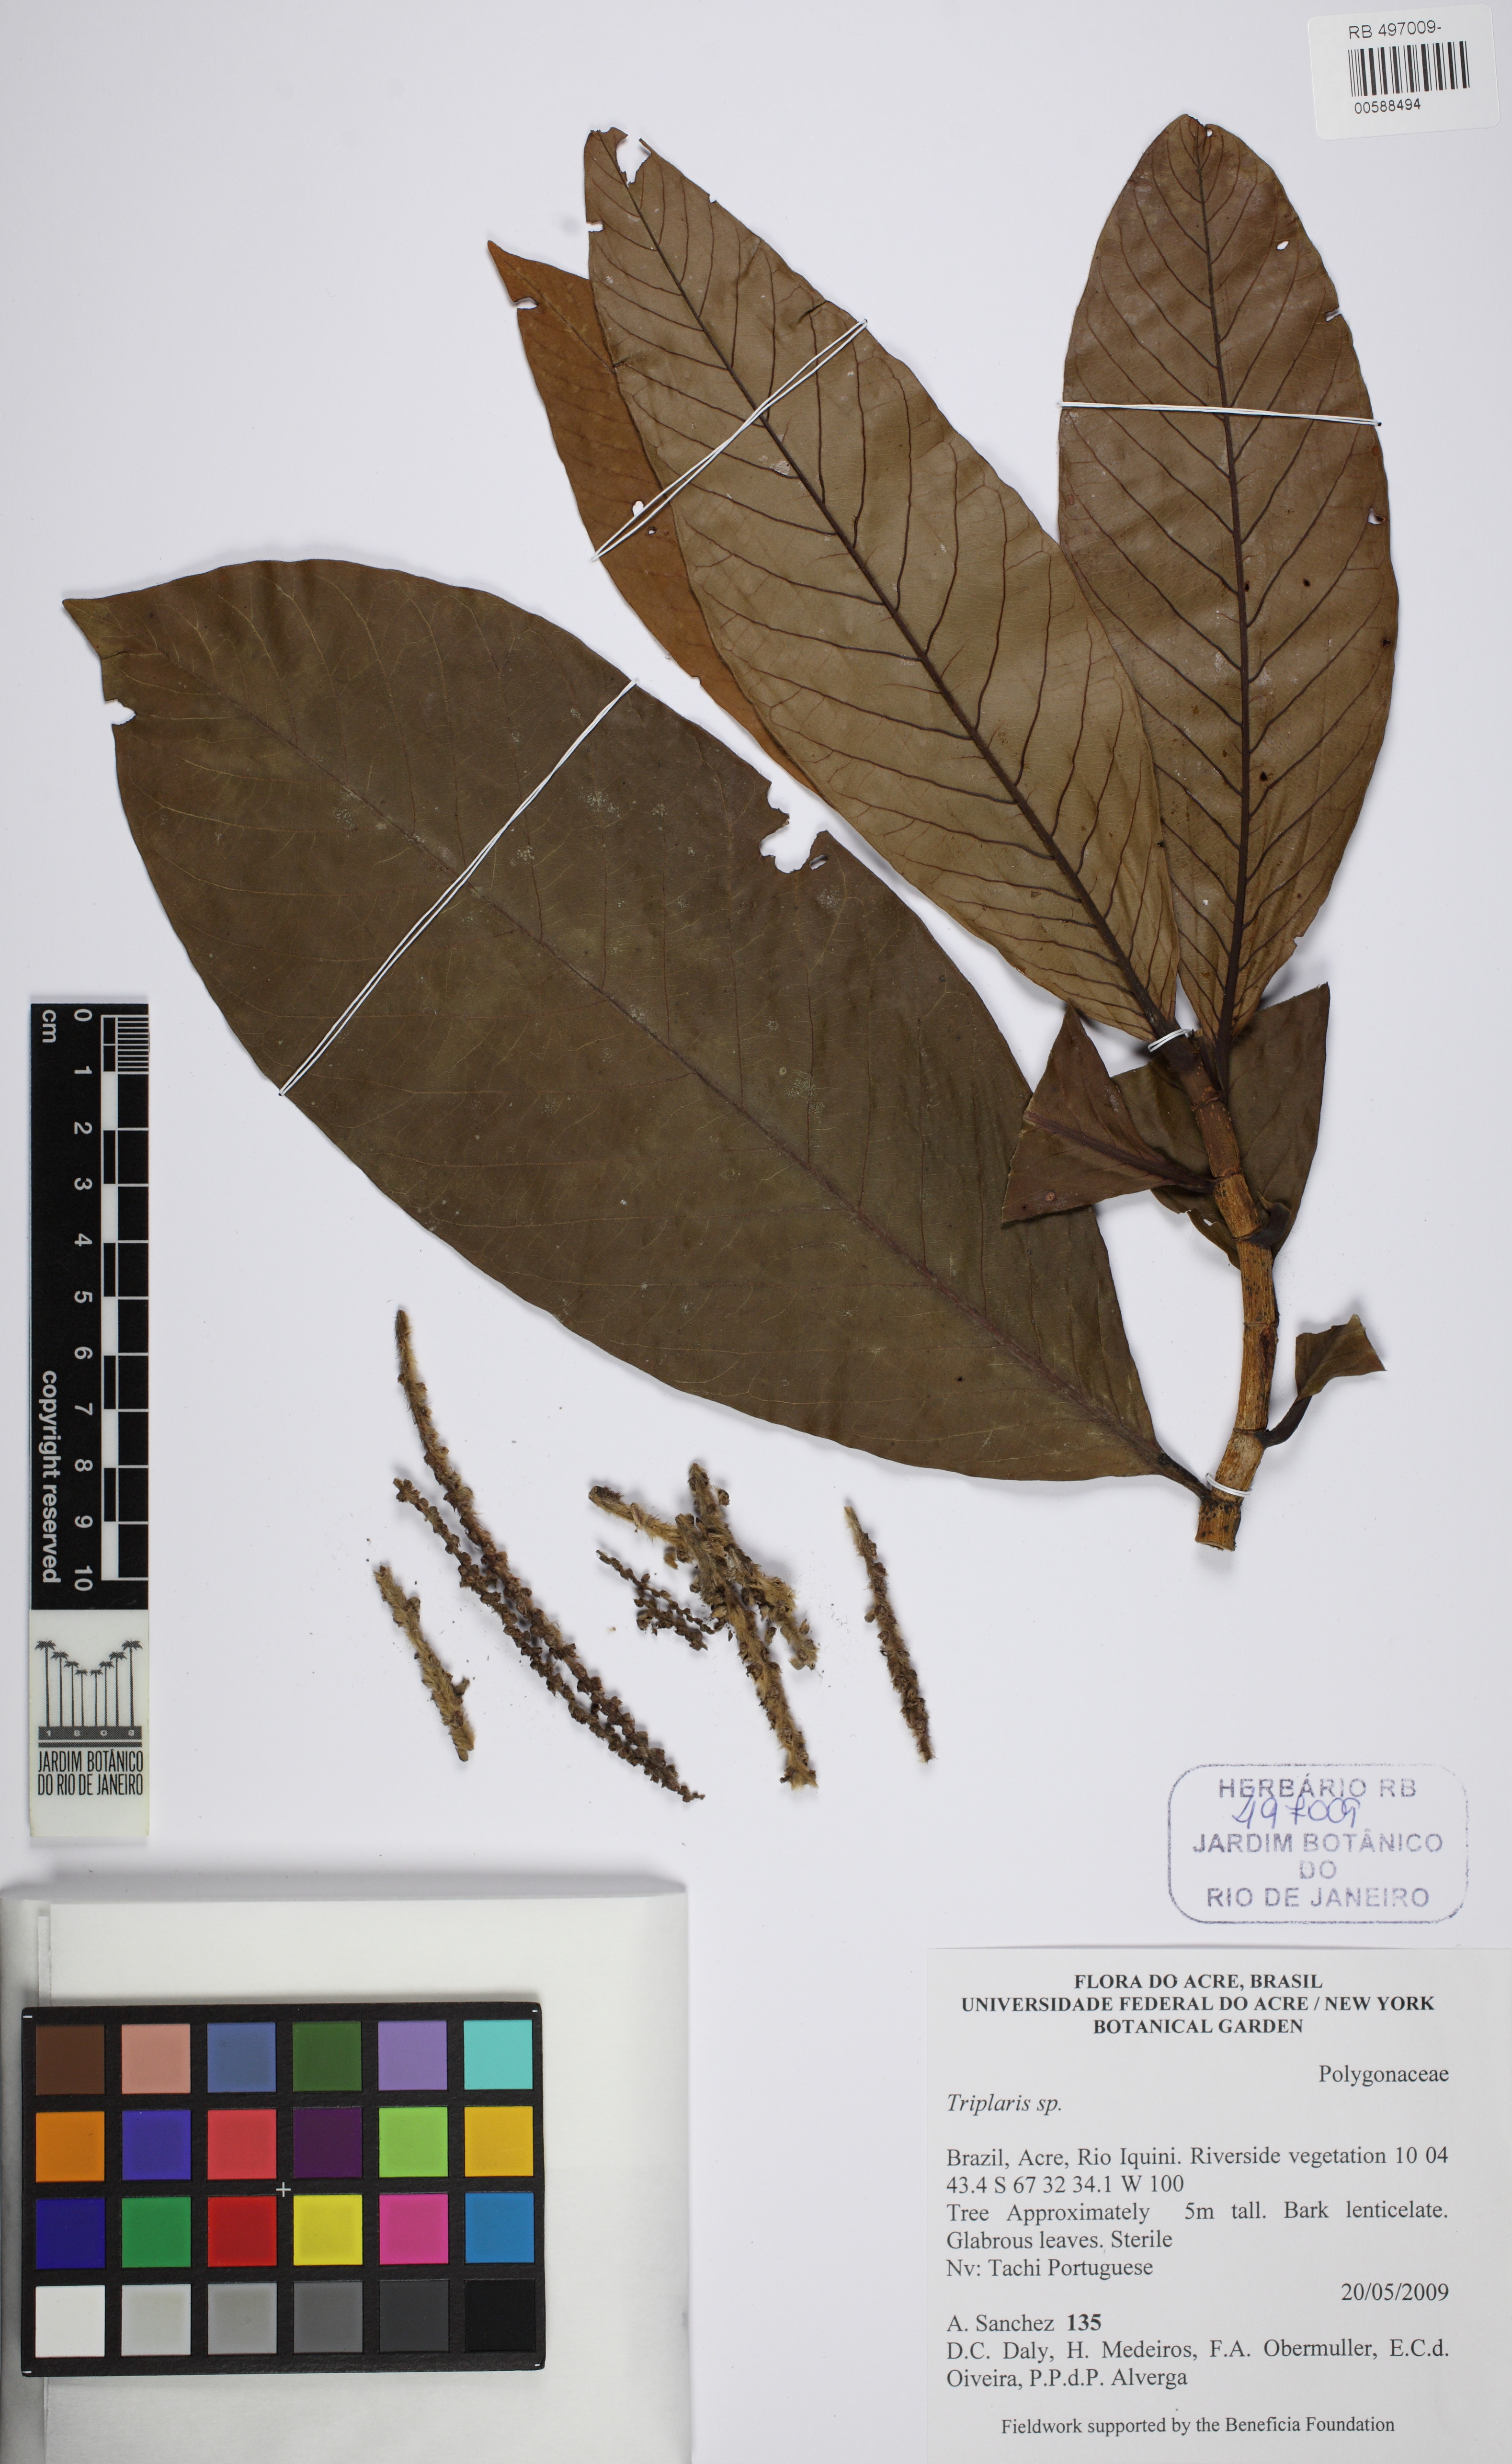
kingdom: Plantae
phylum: Tracheophyta
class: Magnoliopsida
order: Caryophyllales
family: Polygonaceae
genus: Triplaris
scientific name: Triplaris
